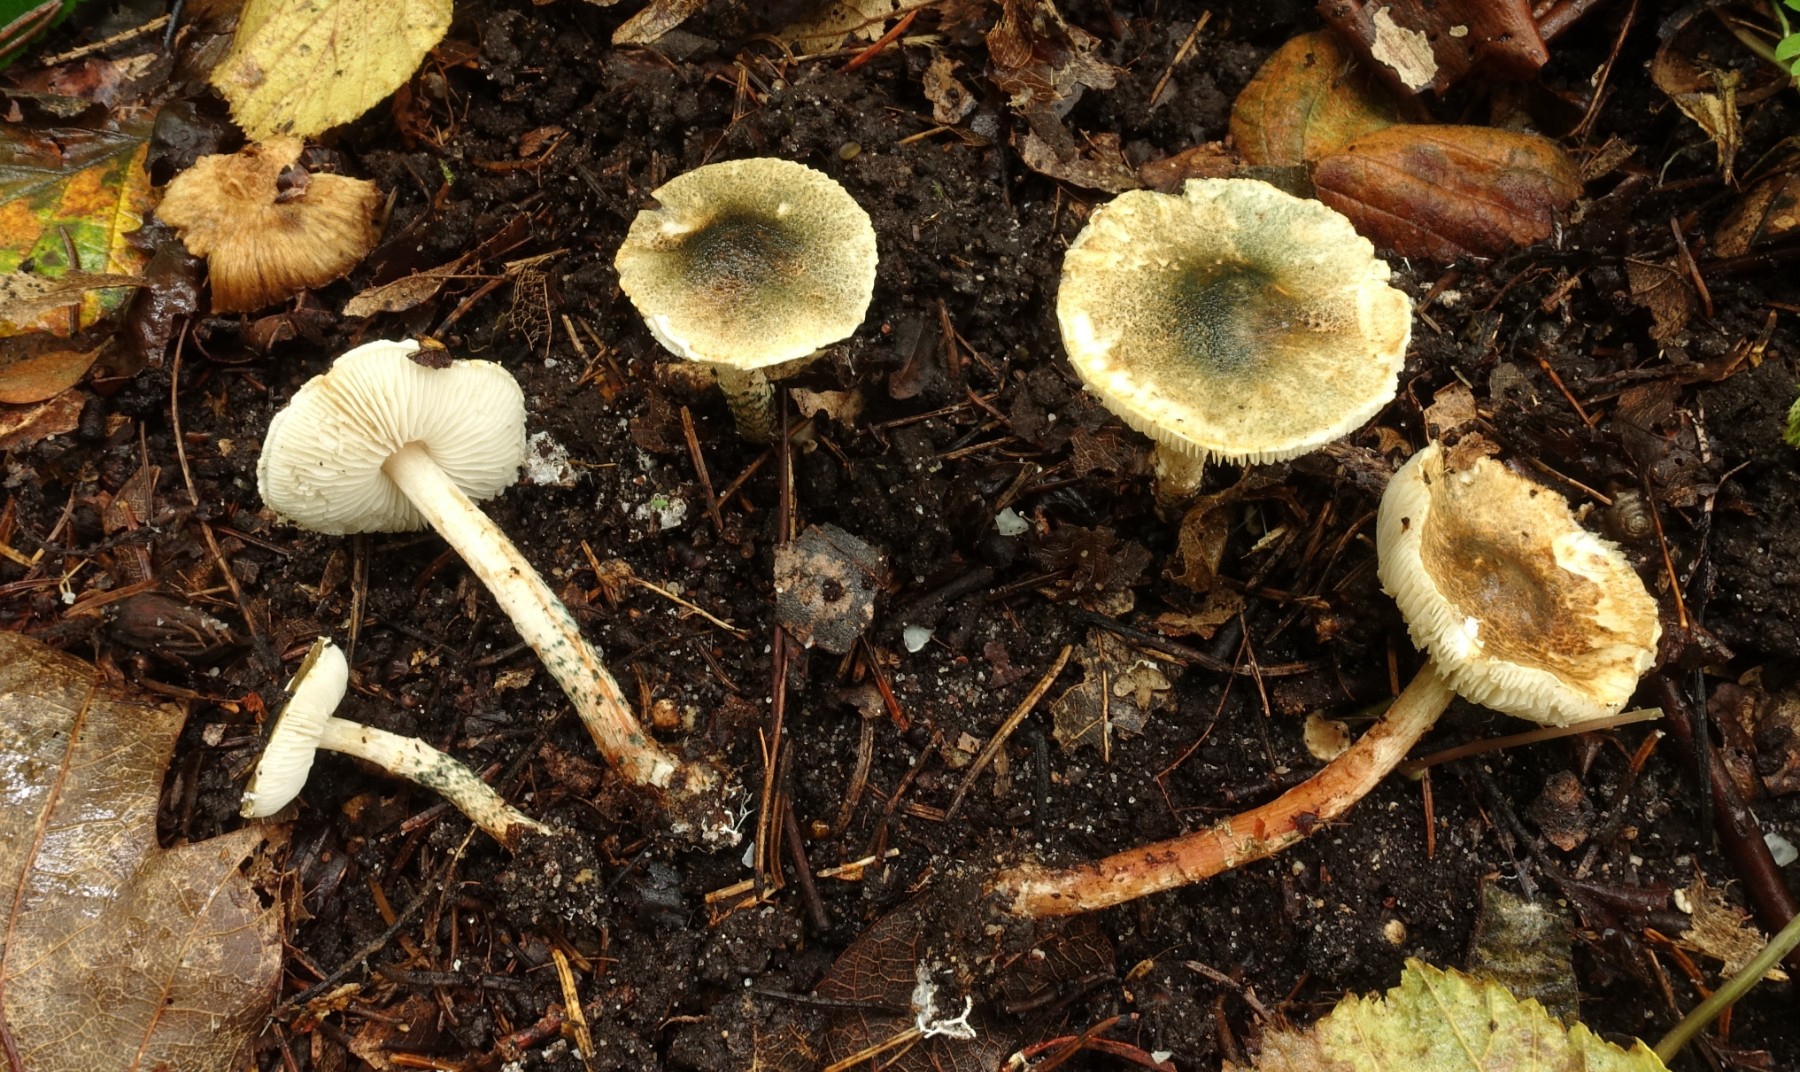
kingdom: Fungi
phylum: Basidiomycota
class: Agaricomycetes
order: Agaricales
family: Agaricaceae
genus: Lepiota
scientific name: Lepiota grangei
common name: grønskællet parasolhat
